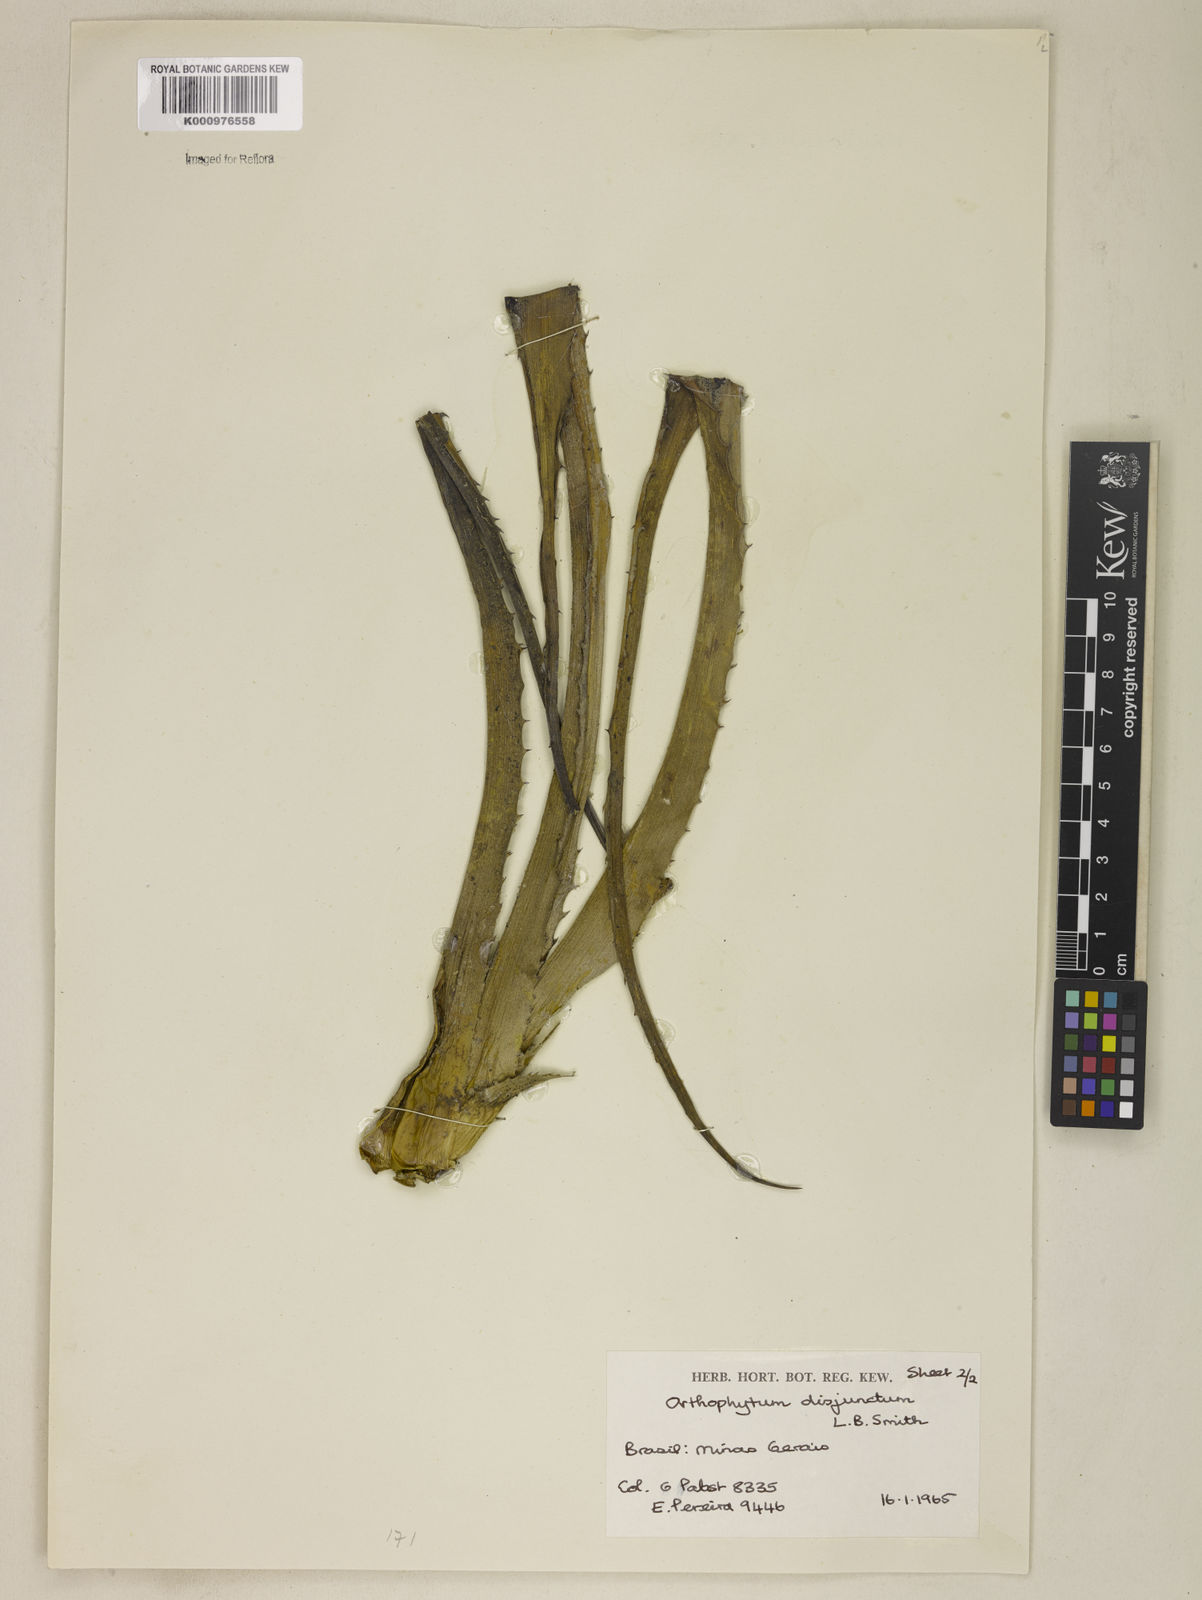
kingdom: Plantae
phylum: Tracheophyta
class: Liliopsida
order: Poales
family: Bromeliaceae
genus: Orthophytum
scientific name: Orthophytum disjunctum
